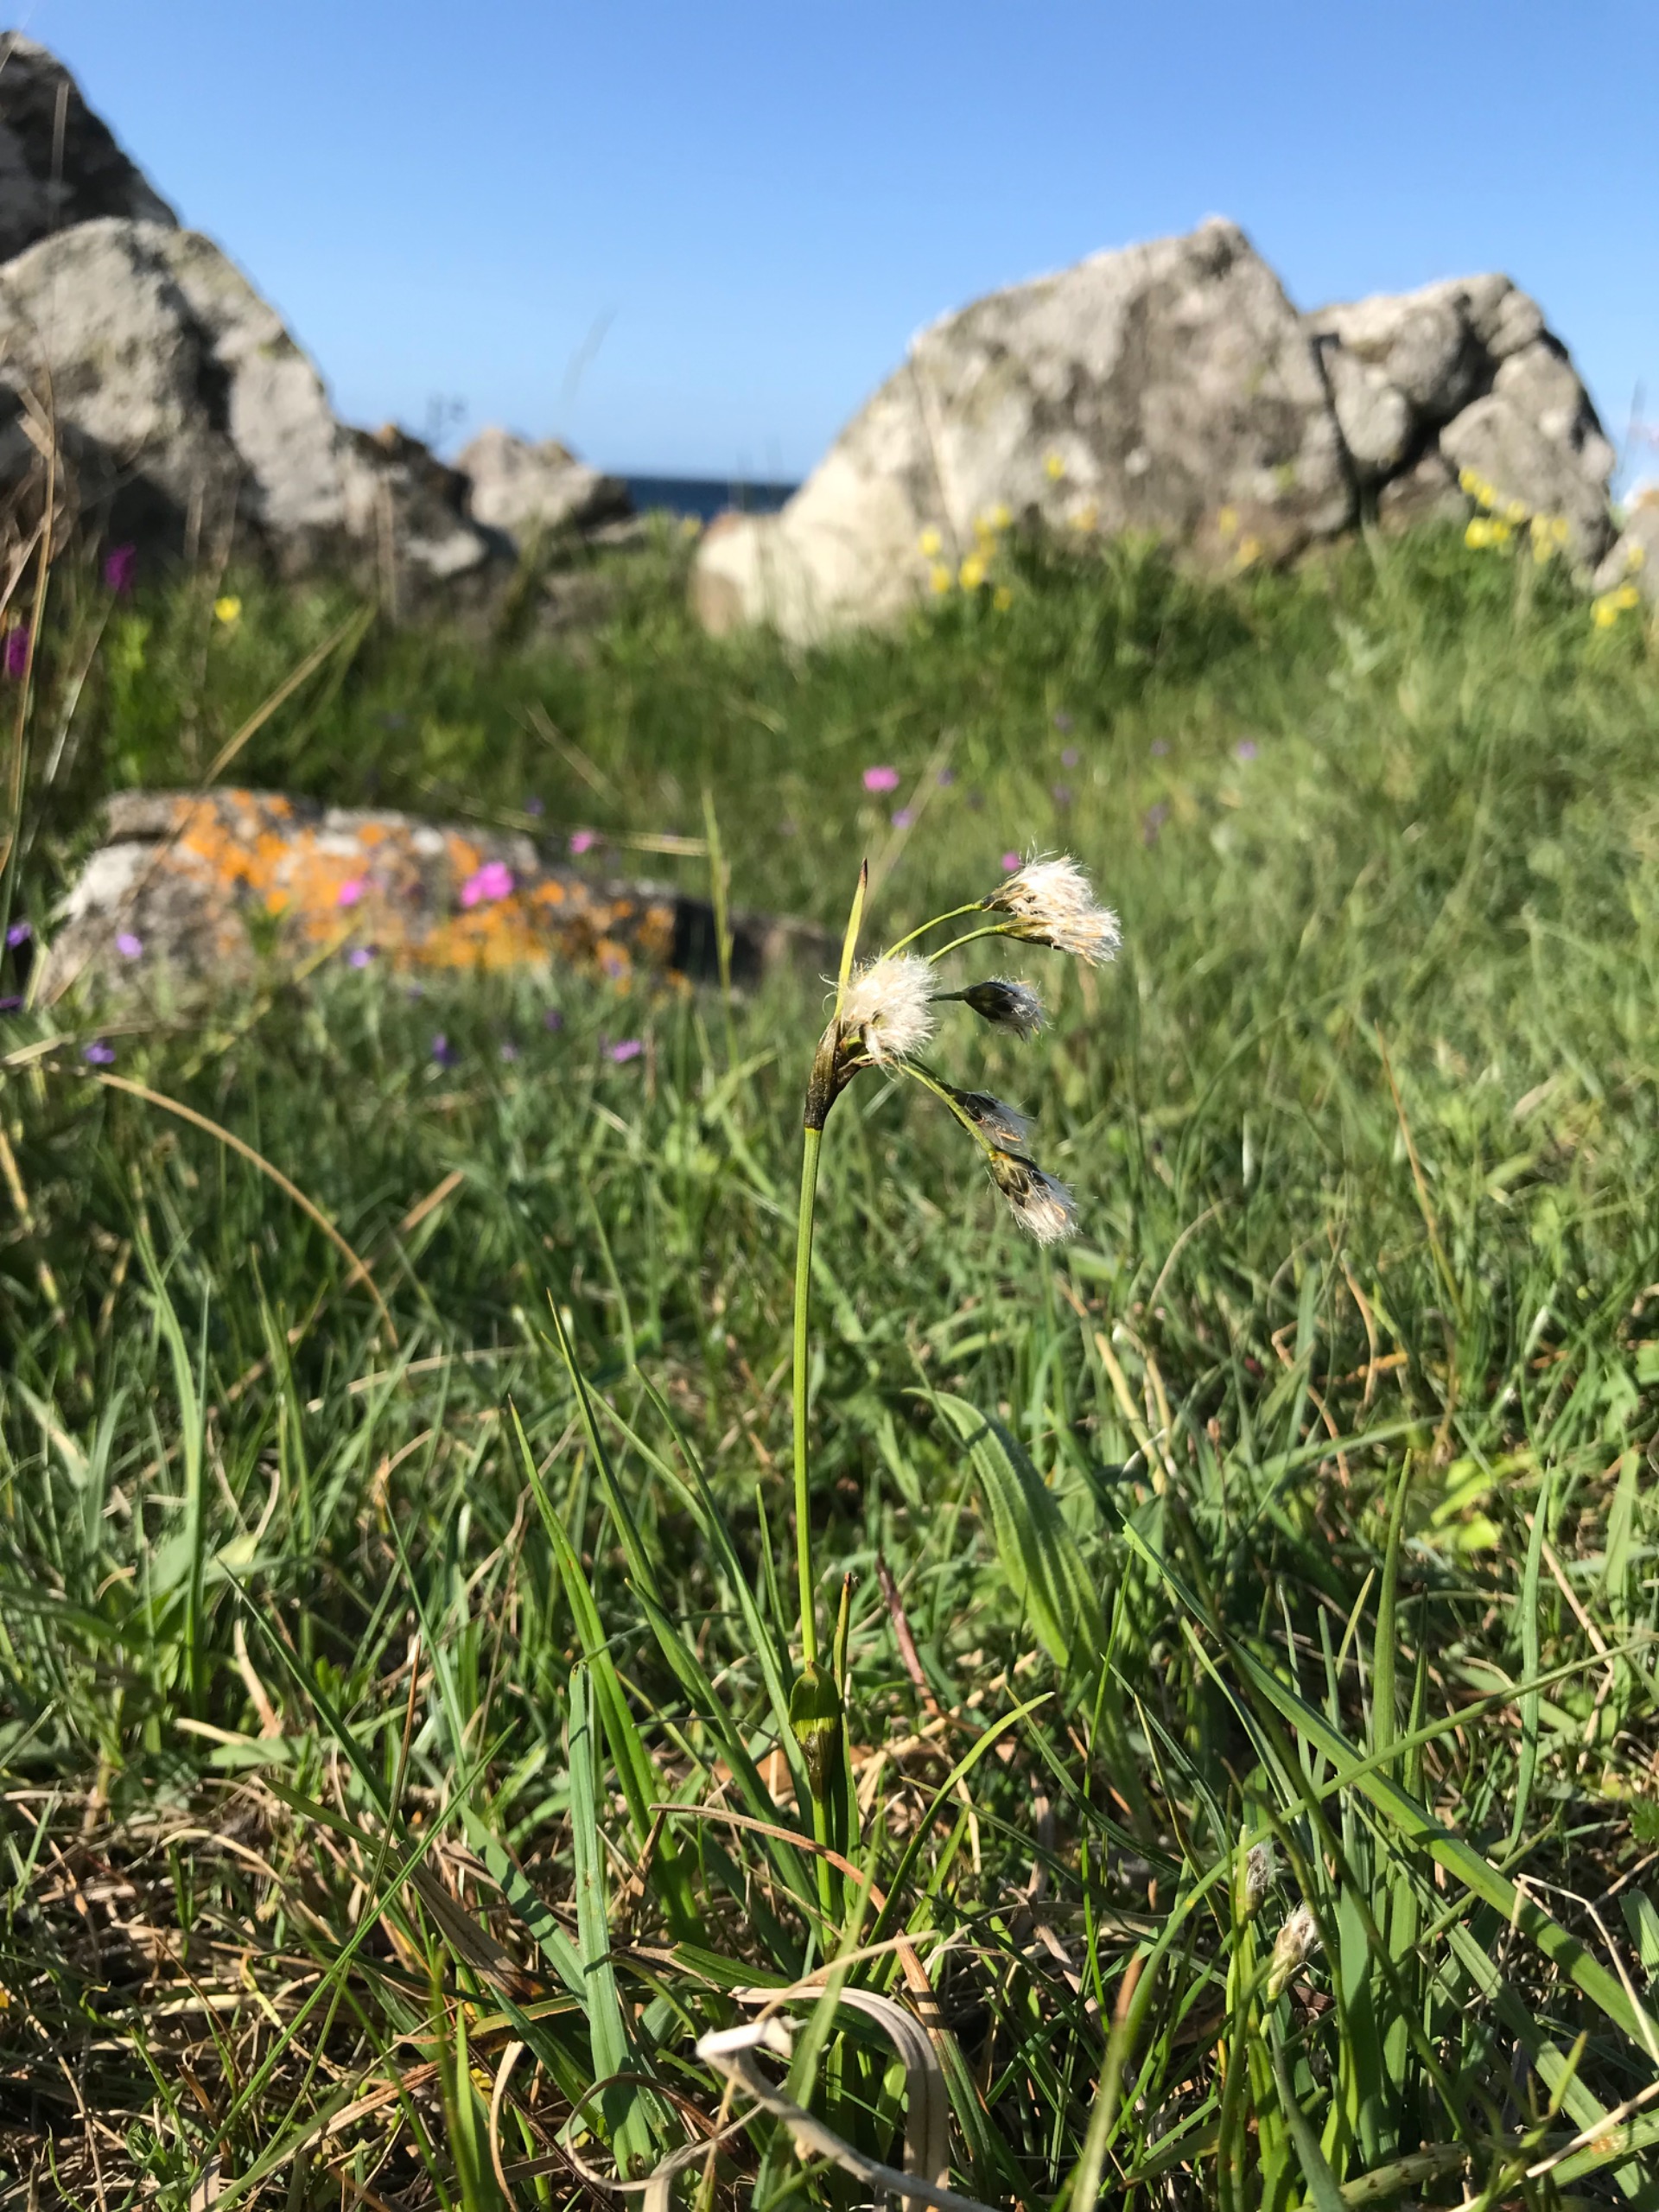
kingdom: Plantae
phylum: Tracheophyta
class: Liliopsida
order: Poales
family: Cyperaceae
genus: Eriophorum
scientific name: Eriophorum latifolium
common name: Bredbladet kæruld
